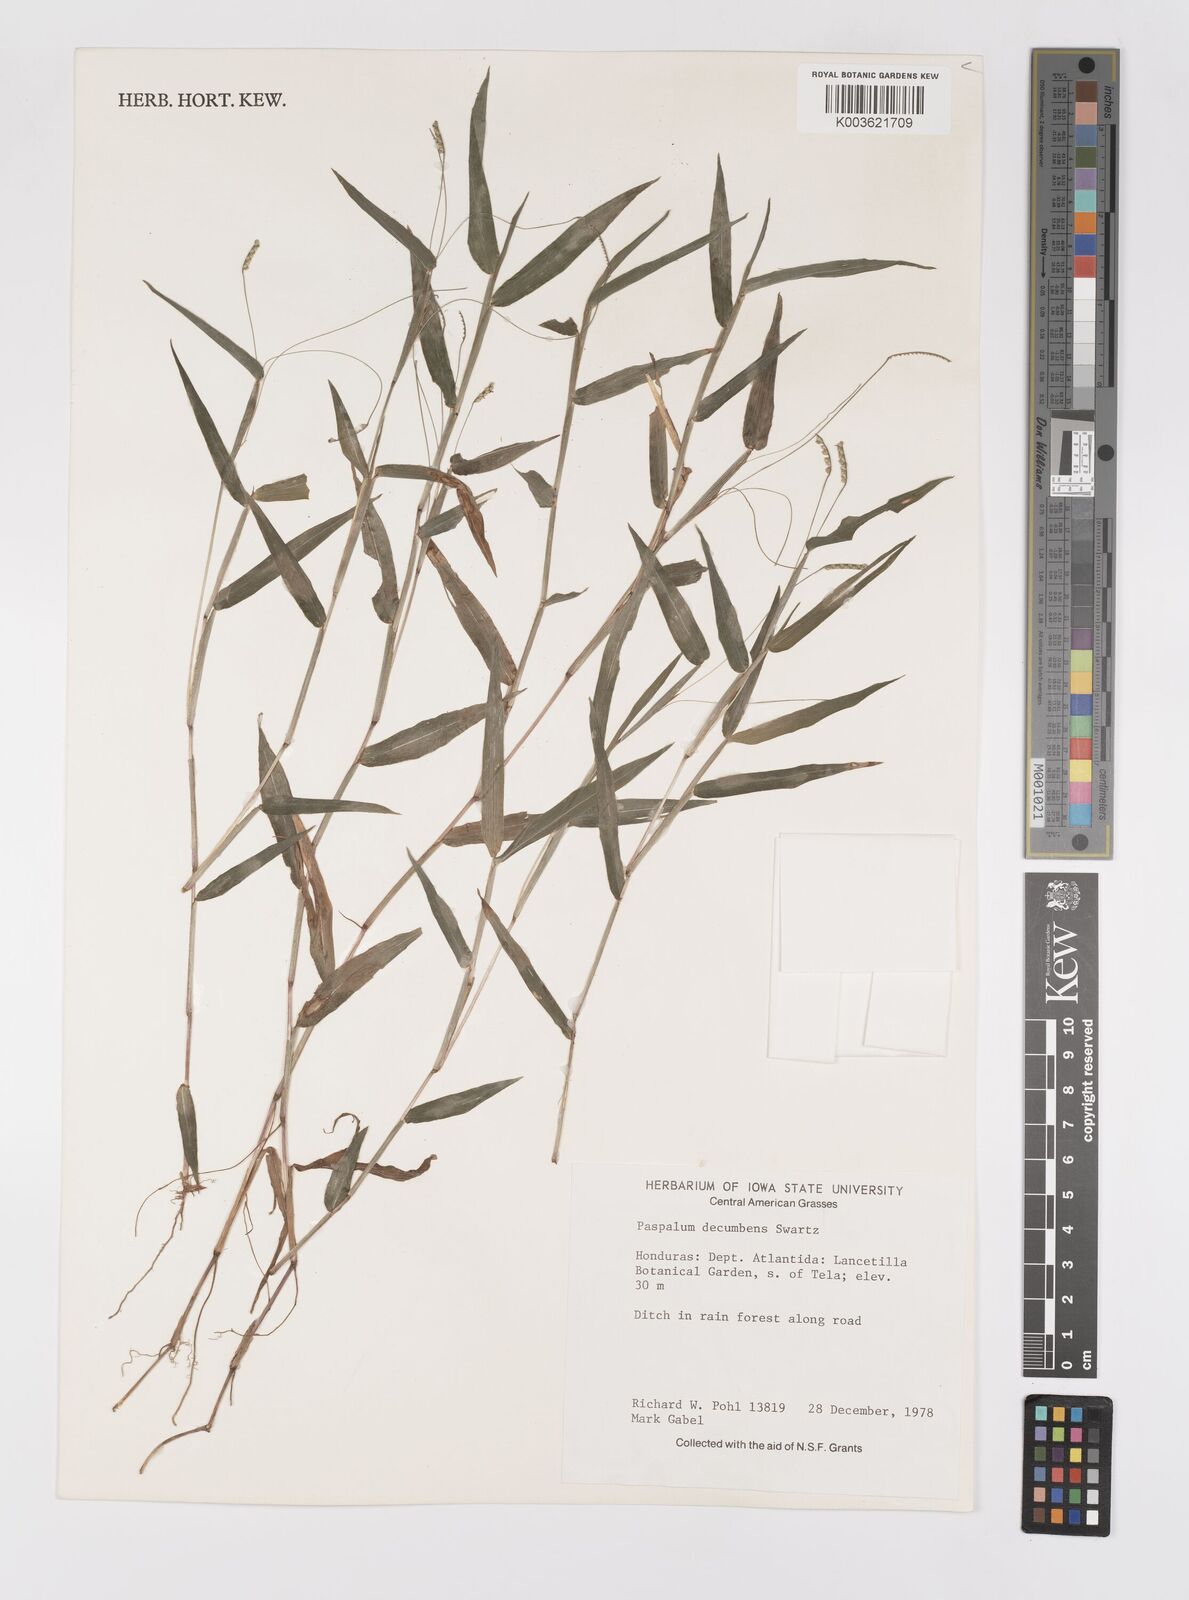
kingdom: Plantae
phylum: Tracheophyta
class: Liliopsida
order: Poales
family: Poaceae
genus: Paspalum
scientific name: Paspalum
